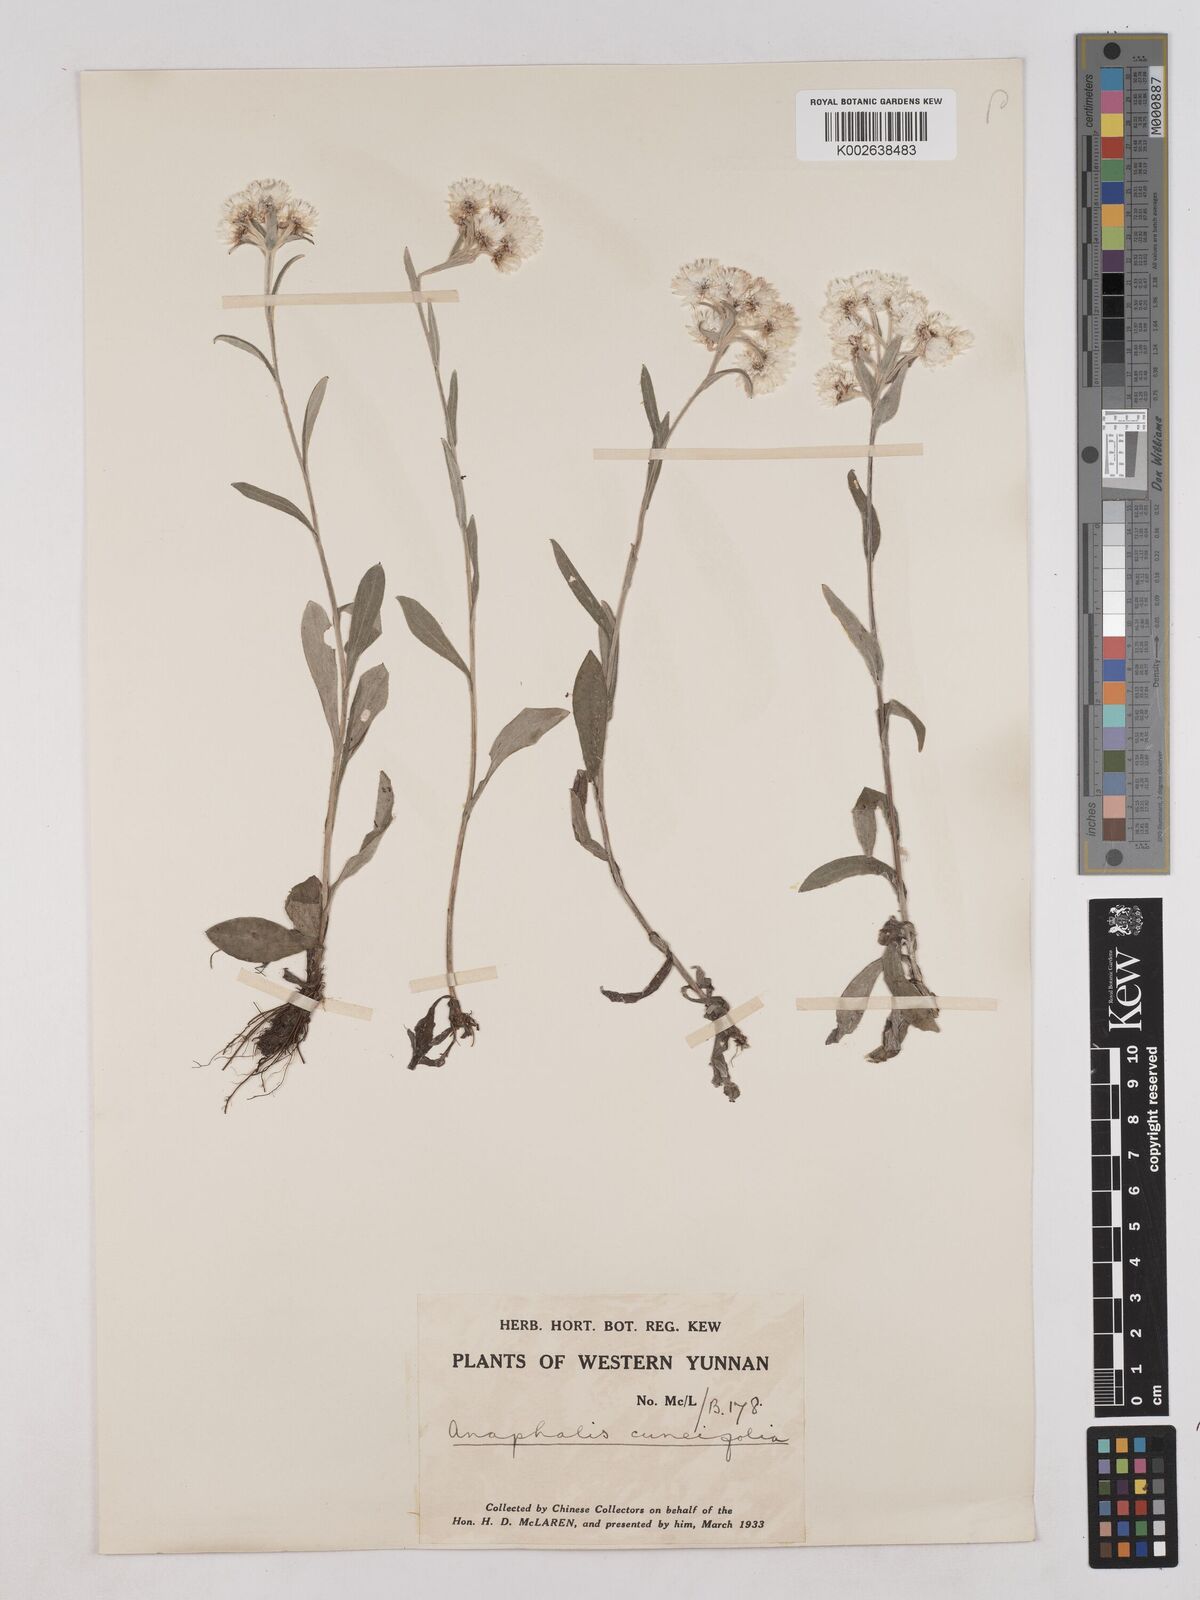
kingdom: Plantae
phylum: Tracheophyta
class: Magnoliopsida
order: Asterales
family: Asteraceae
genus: Anaphalis
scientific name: Anaphalis nepalensis
